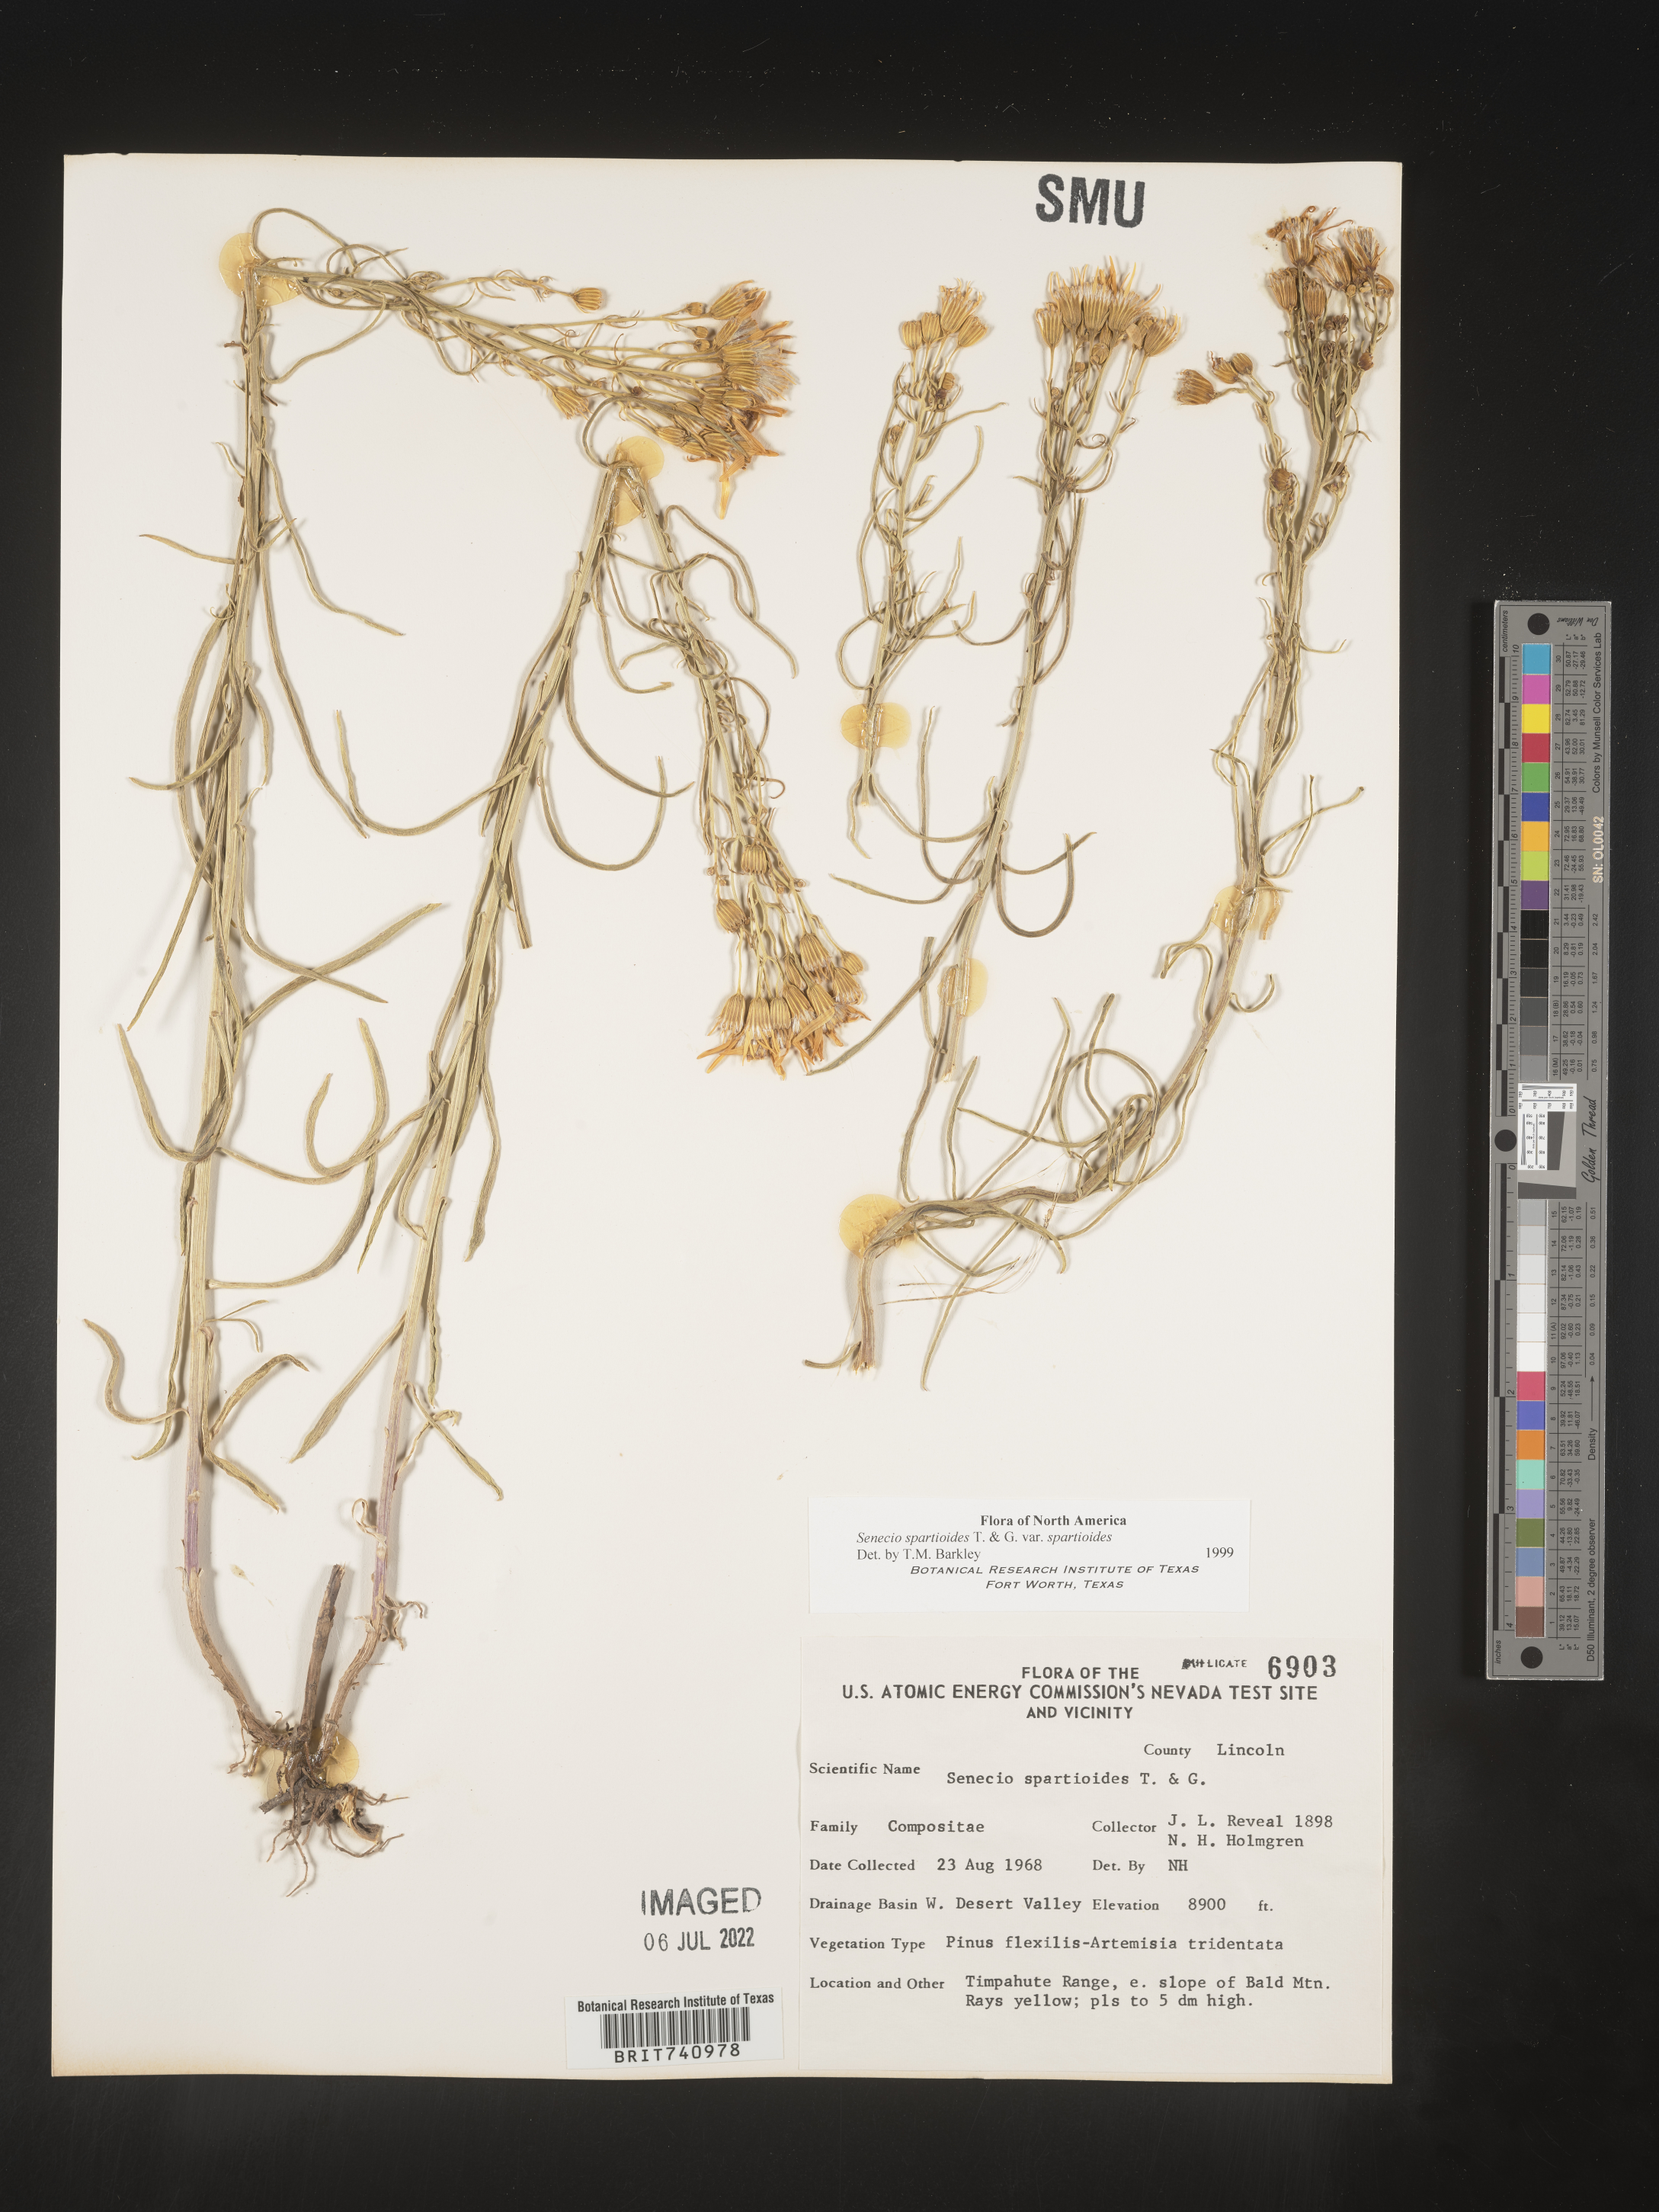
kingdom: Plantae
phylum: Tracheophyta
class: Magnoliopsida
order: Asterales
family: Asteraceae
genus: Senecio
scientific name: Senecio spartioides
